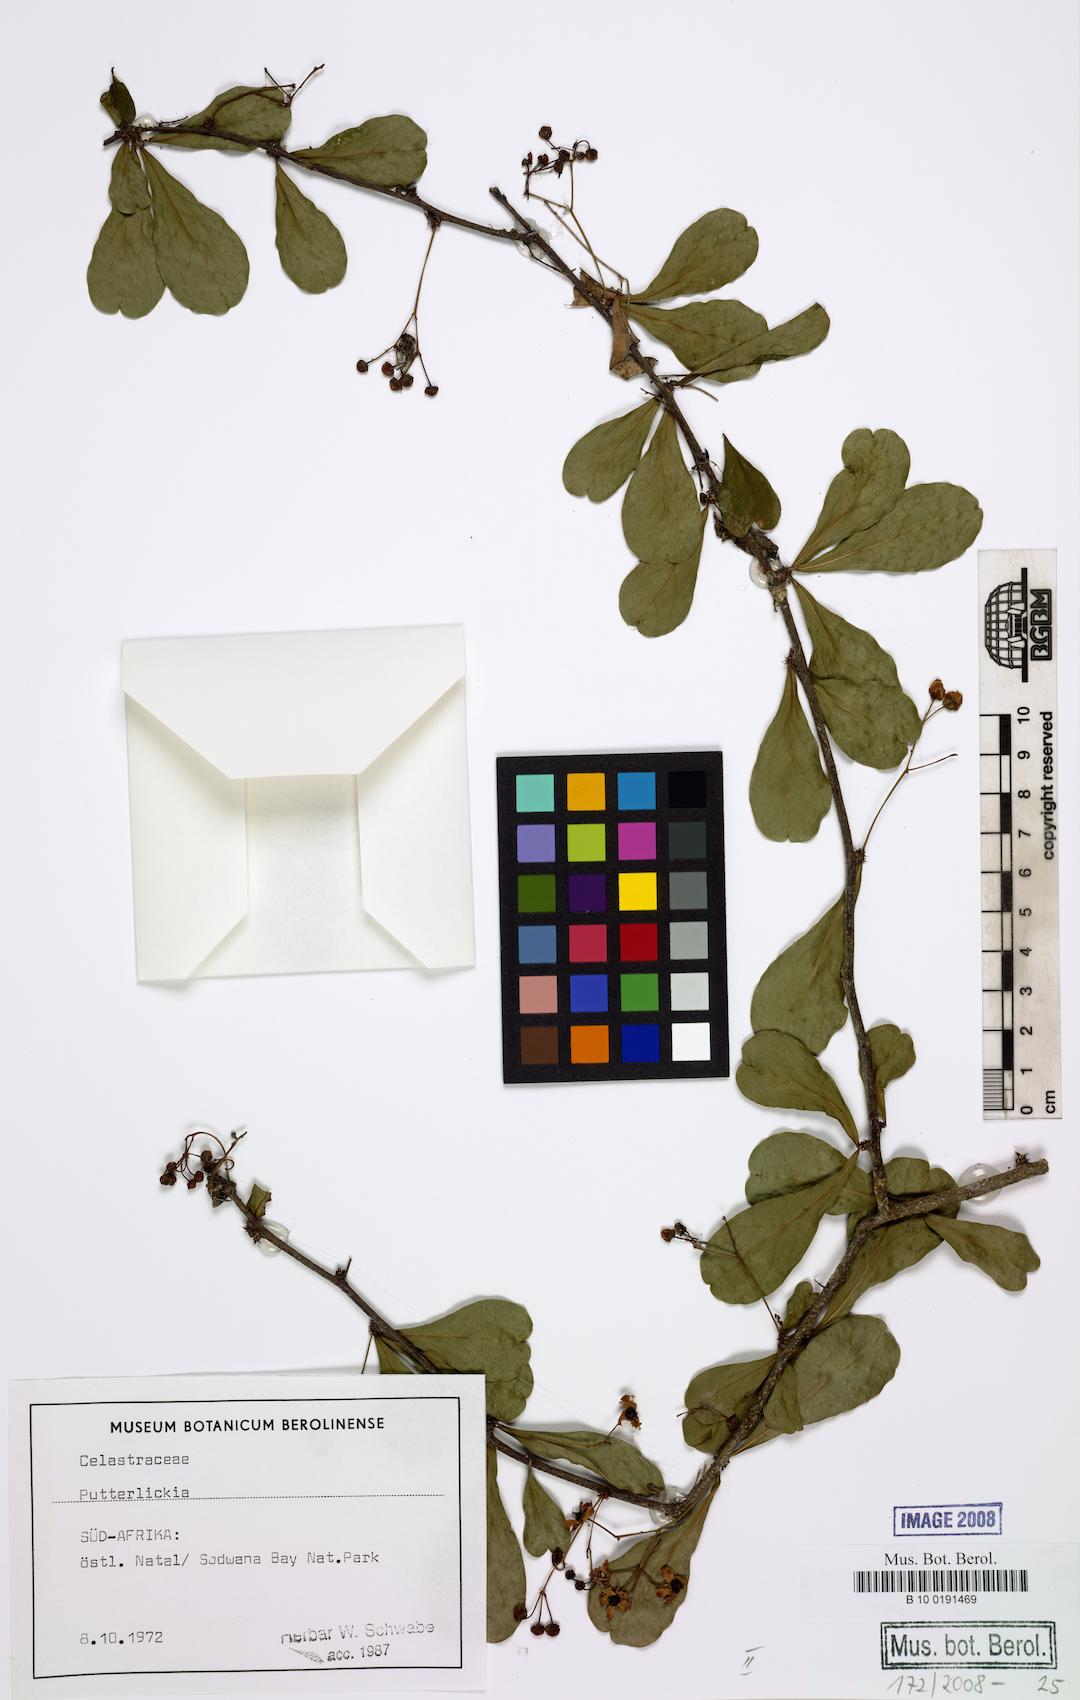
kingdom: Plantae
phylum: Tracheophyta
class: Magnoliopsida
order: Celastrales
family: Celastraceae
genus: Putterlickia
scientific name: Putterlickia
